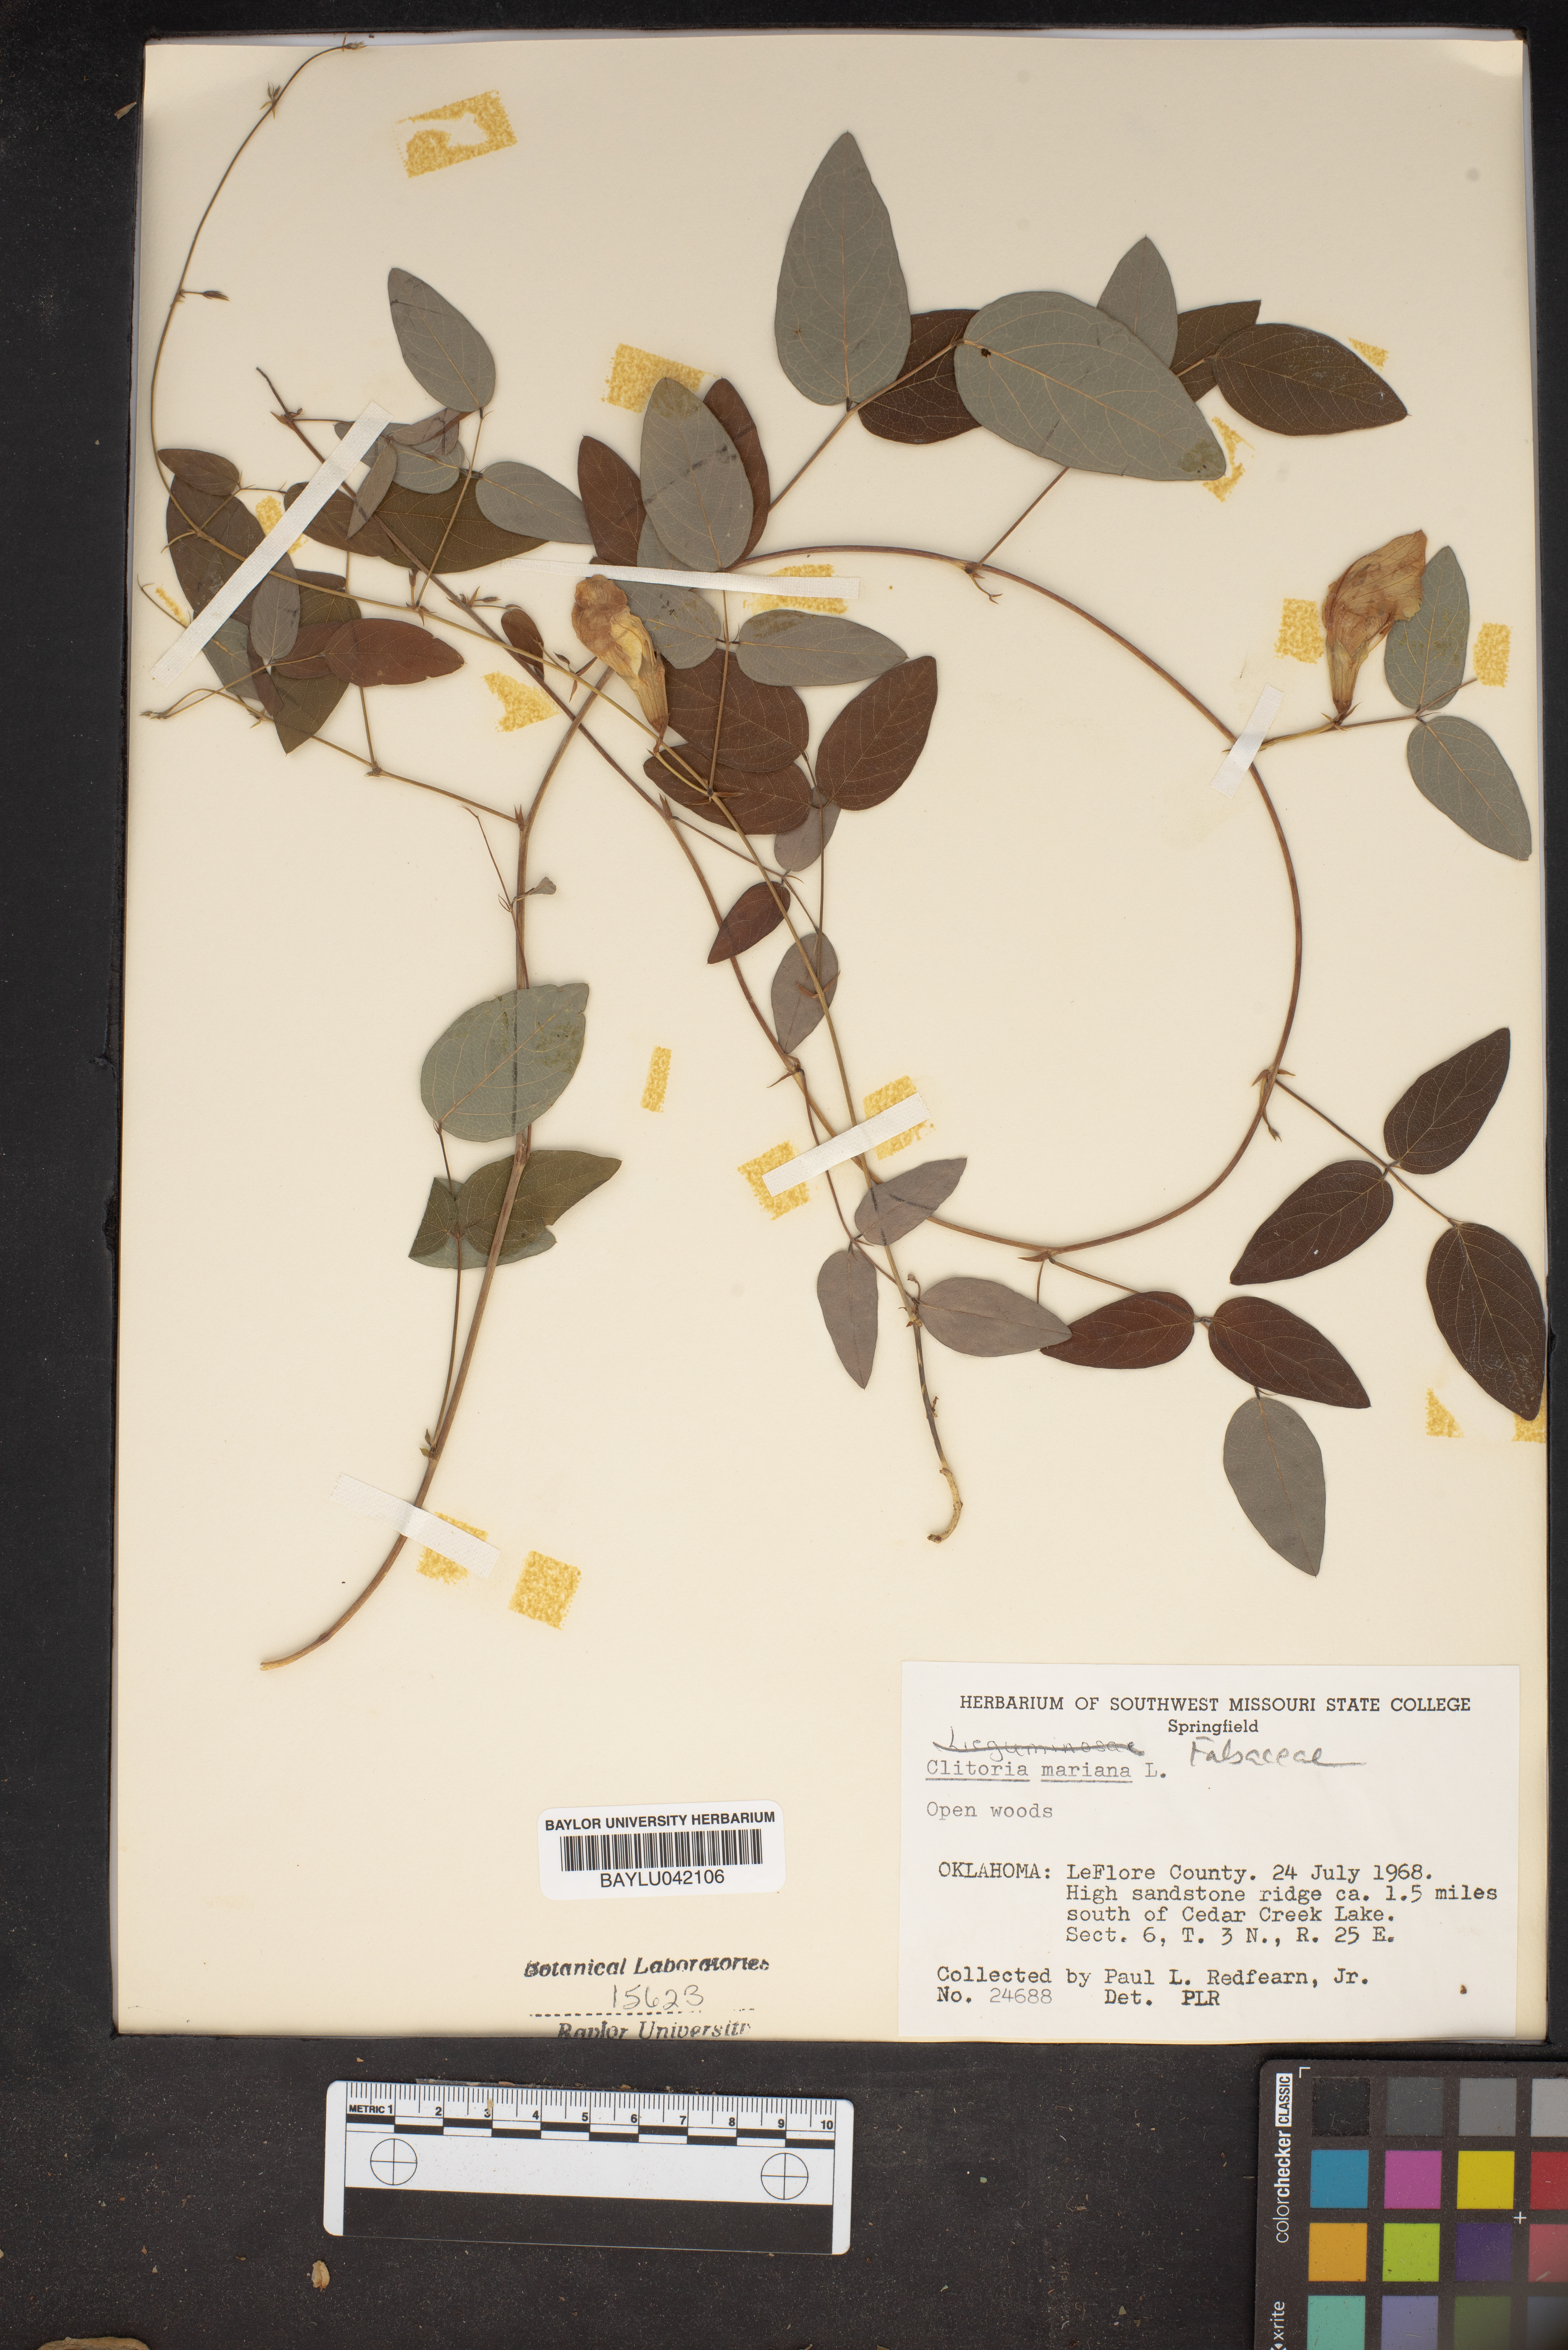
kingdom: Plantae
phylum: Tracheophyta
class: Magnoliopsida
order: Fabales
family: Fabaceae
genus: Clitoria
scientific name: Clitoria mariana
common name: Butterfly-pea
